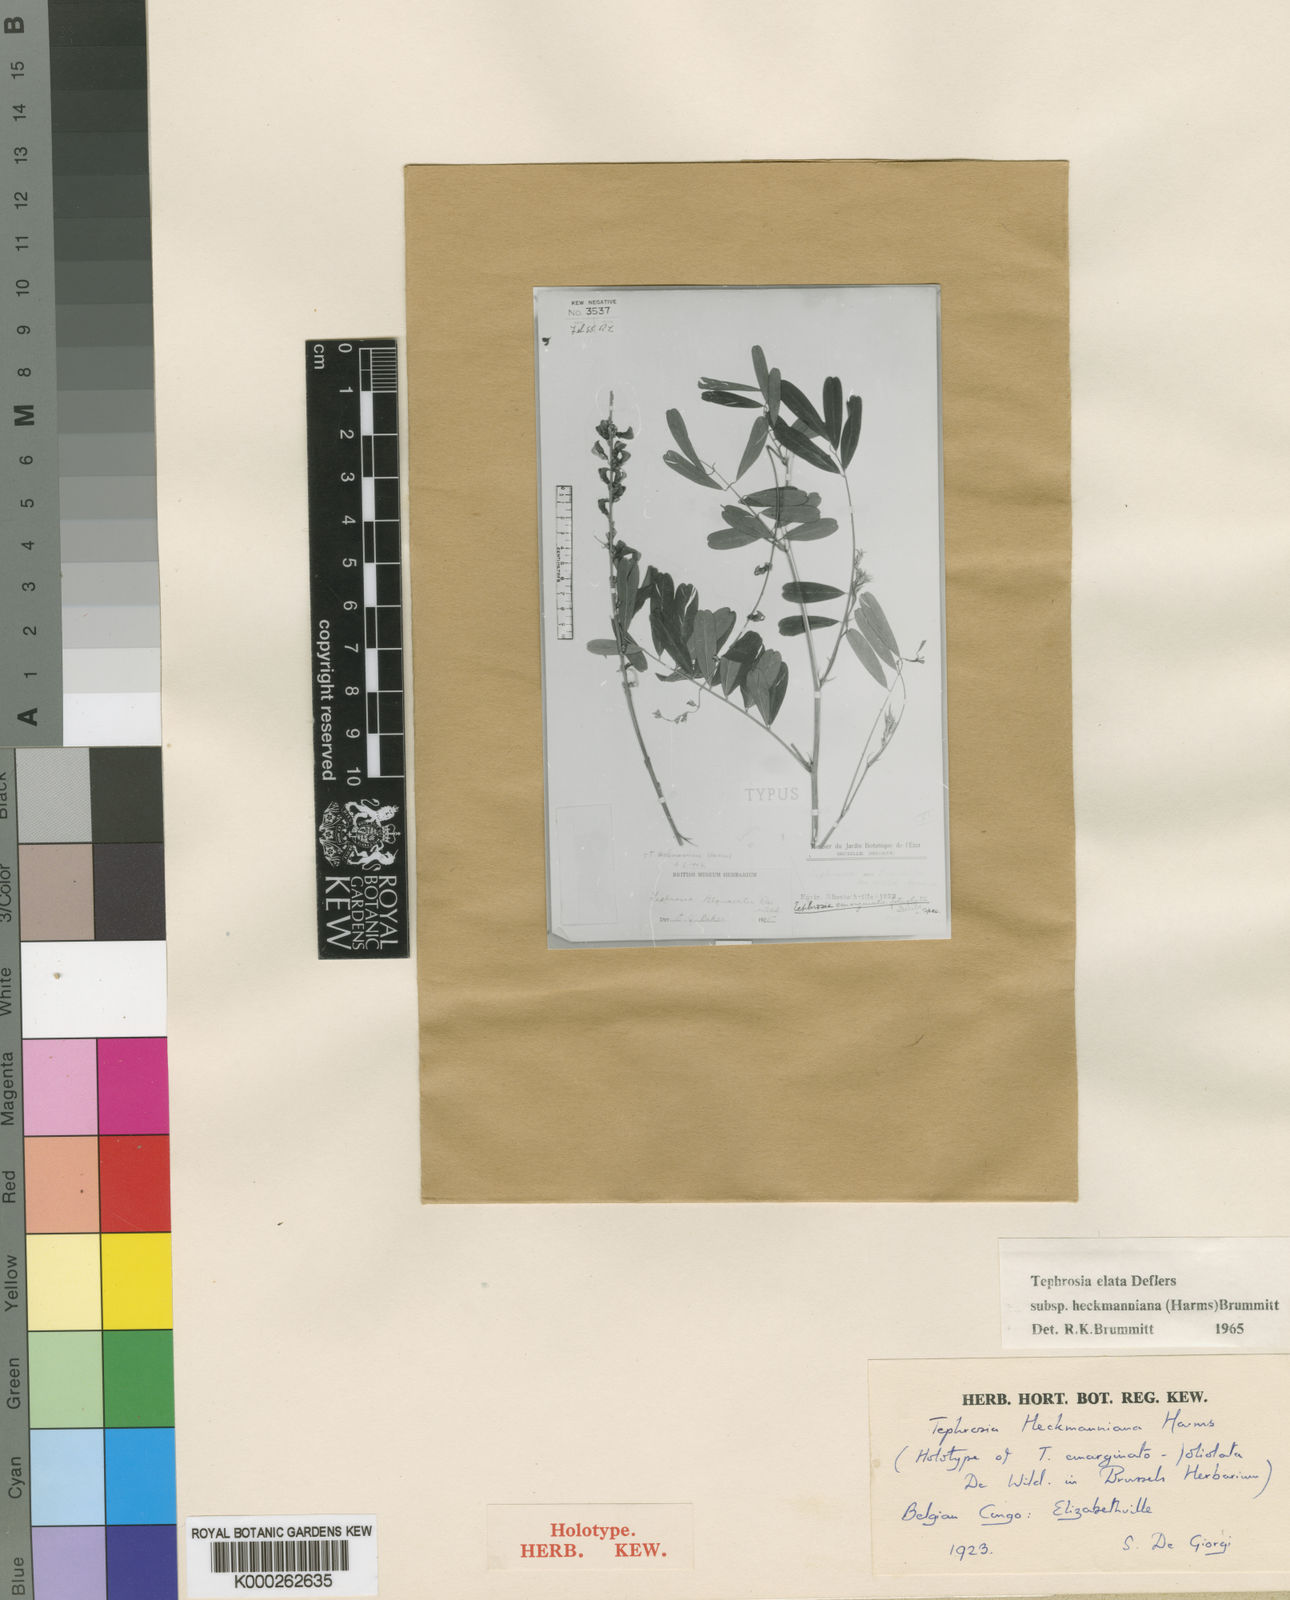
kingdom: Plantae
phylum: Tracheophyta
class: Magnoliopsida
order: Fabales
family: Fabaceae
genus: Tephrosia
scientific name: Tephrosia
